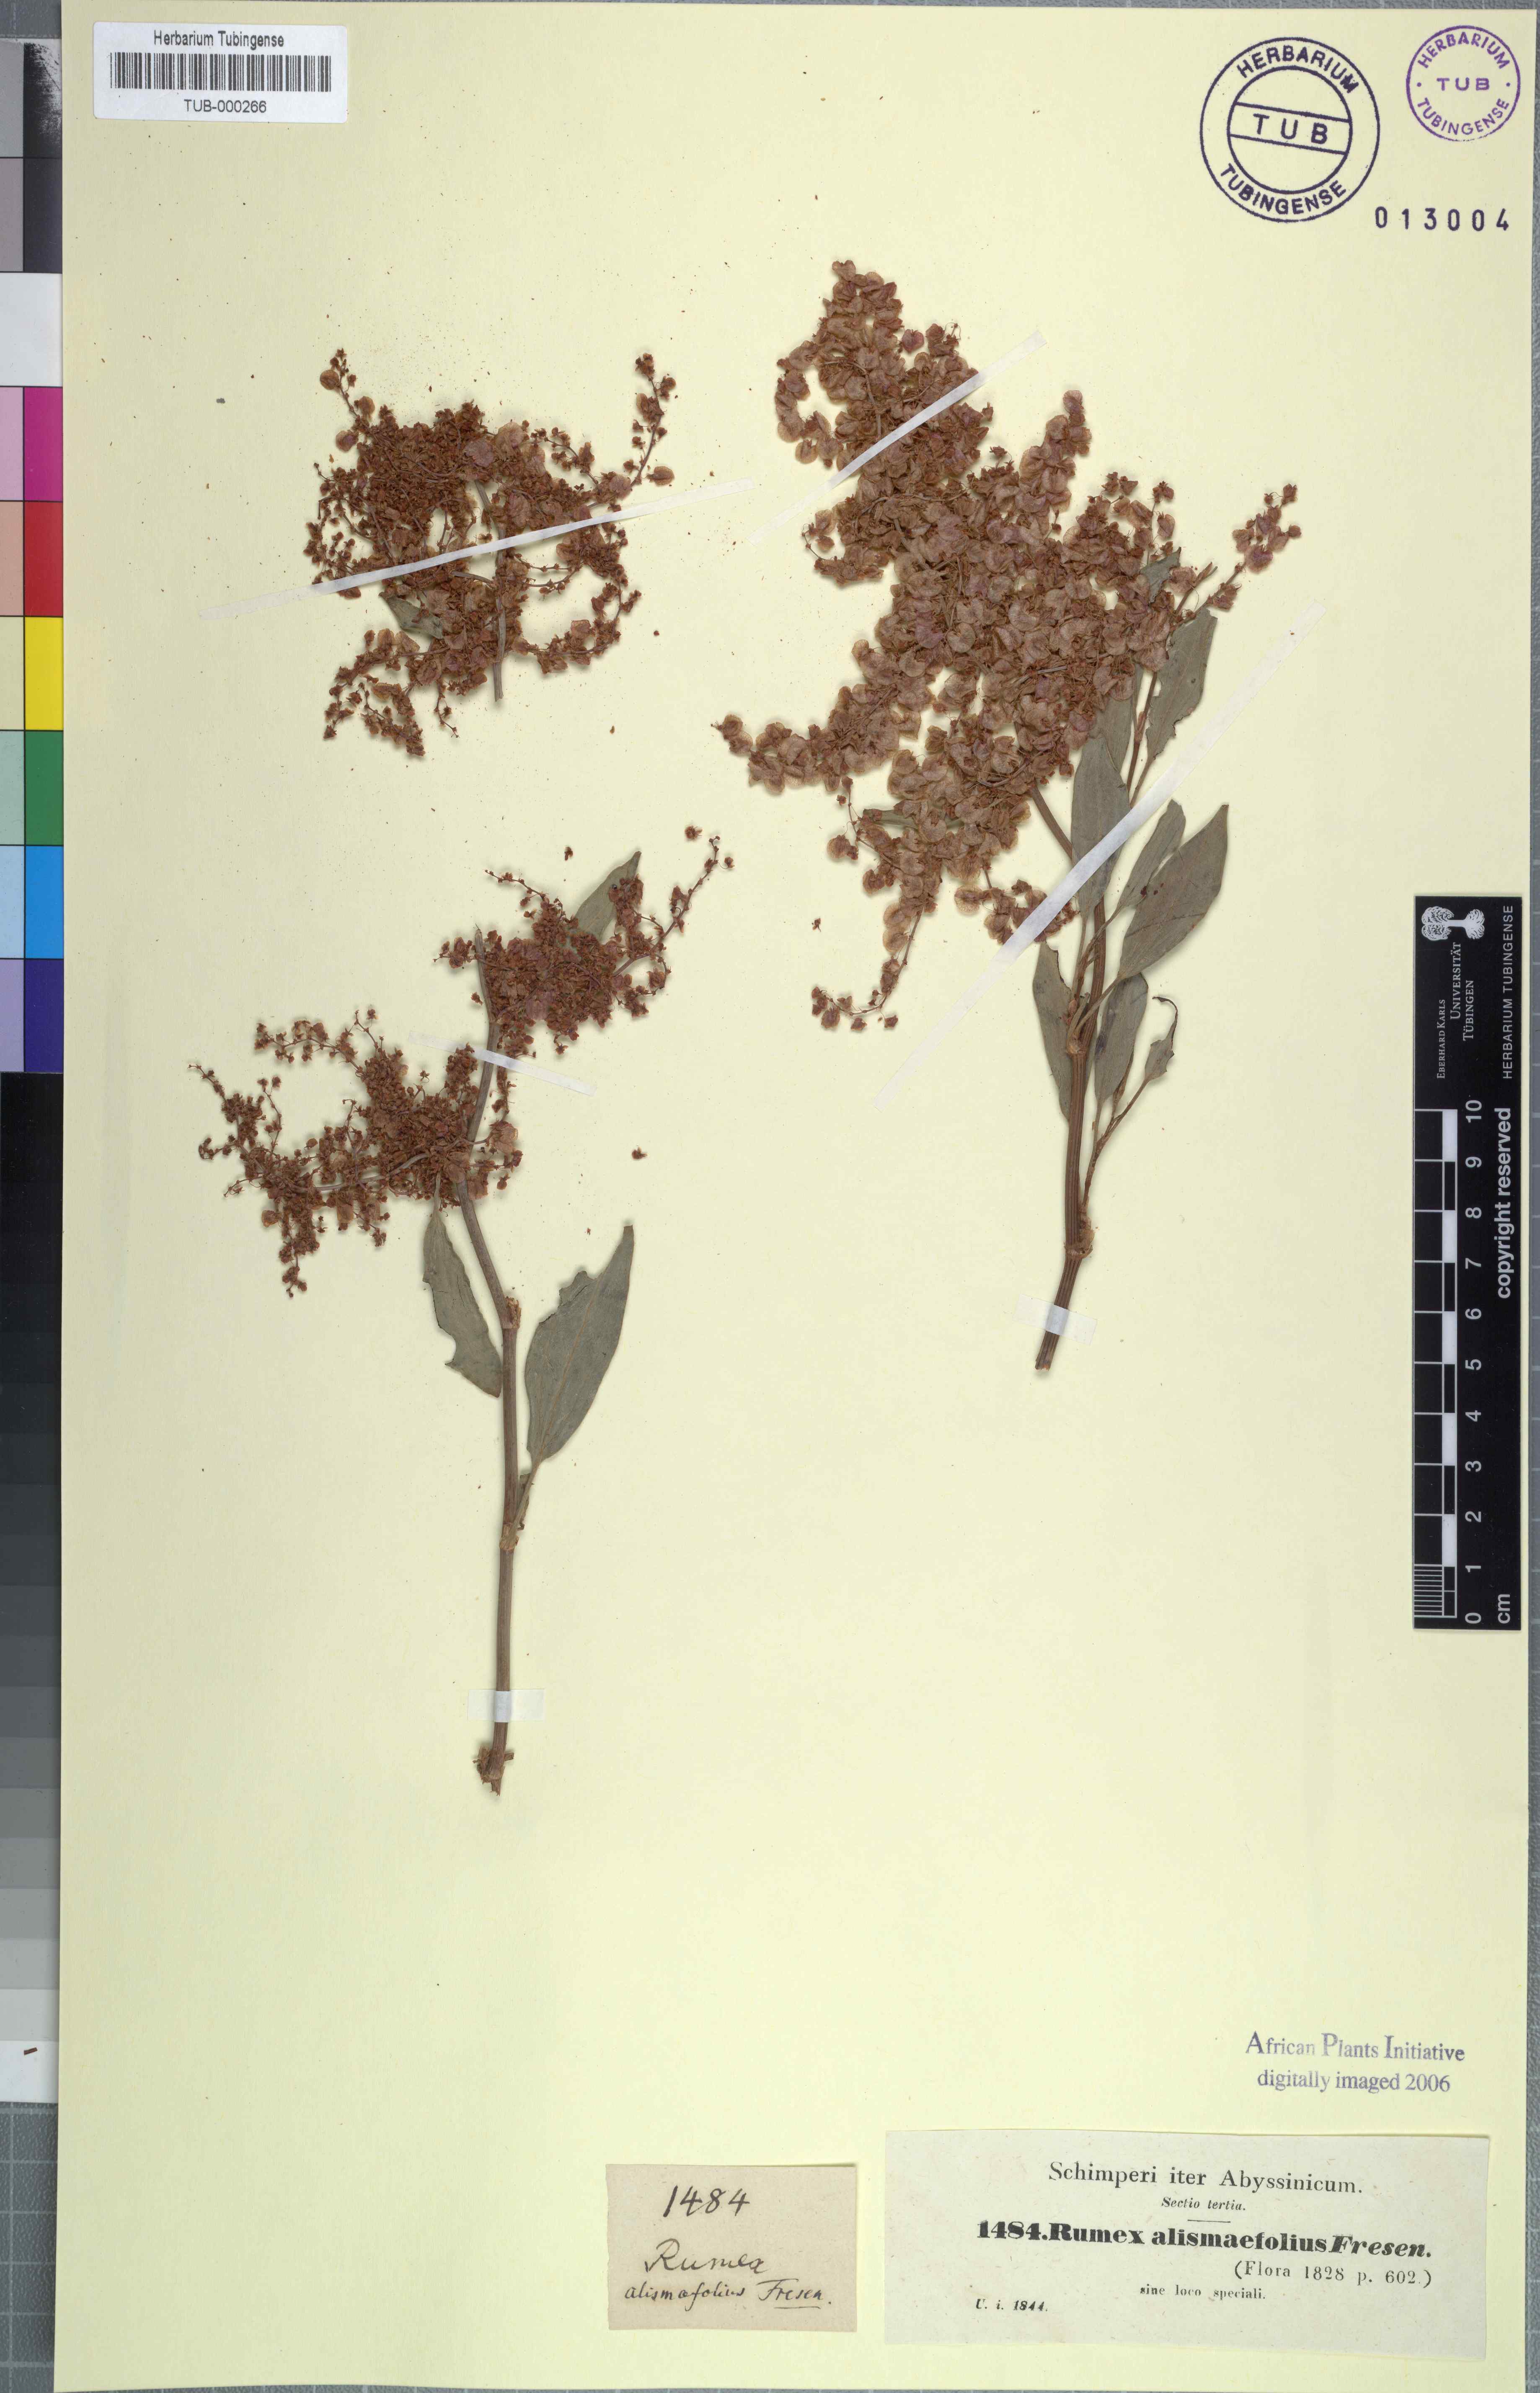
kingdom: Plantae
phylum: Tracheophyta
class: Magnoliopsida
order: Caryophyllales
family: Polygonaceae
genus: Rumex
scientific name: Rumex nervosus
